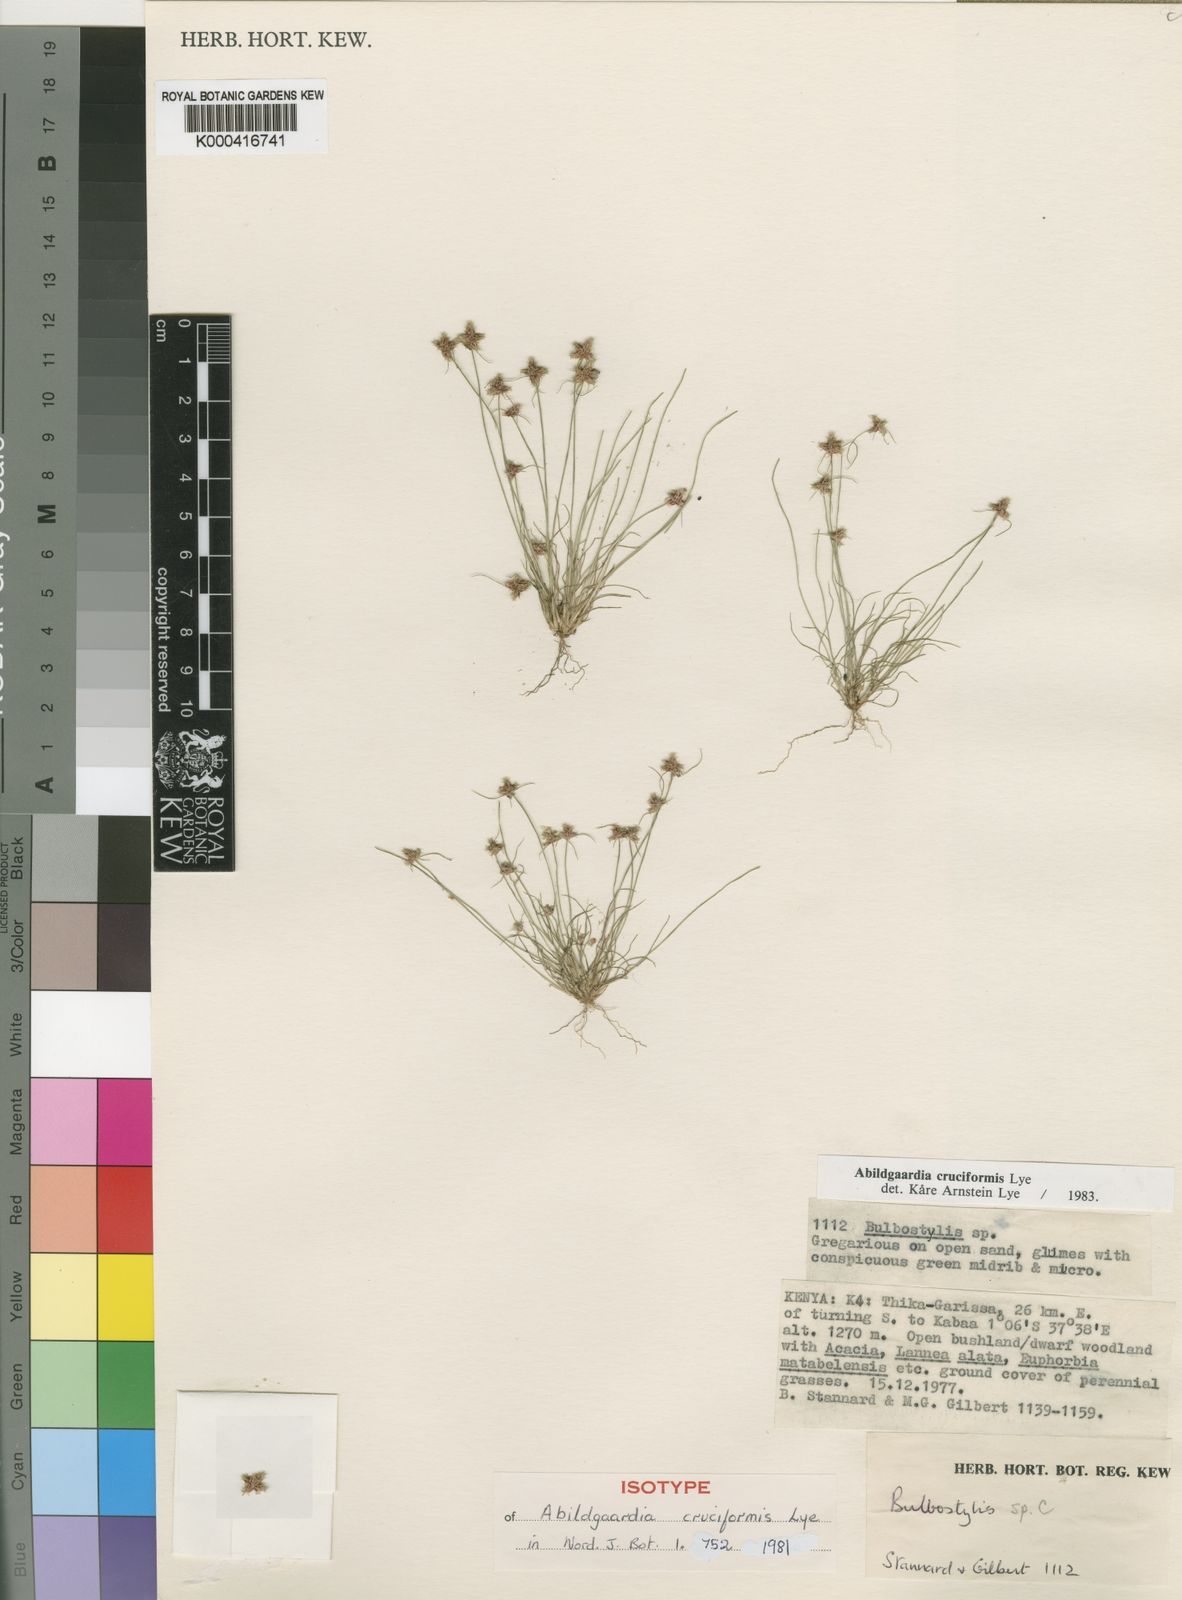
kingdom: Plantae
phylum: Tracheophyta
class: Liliopsida
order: Poales
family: Cyperaceae
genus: Bulbostylis
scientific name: Bulbostylis cruciformis
